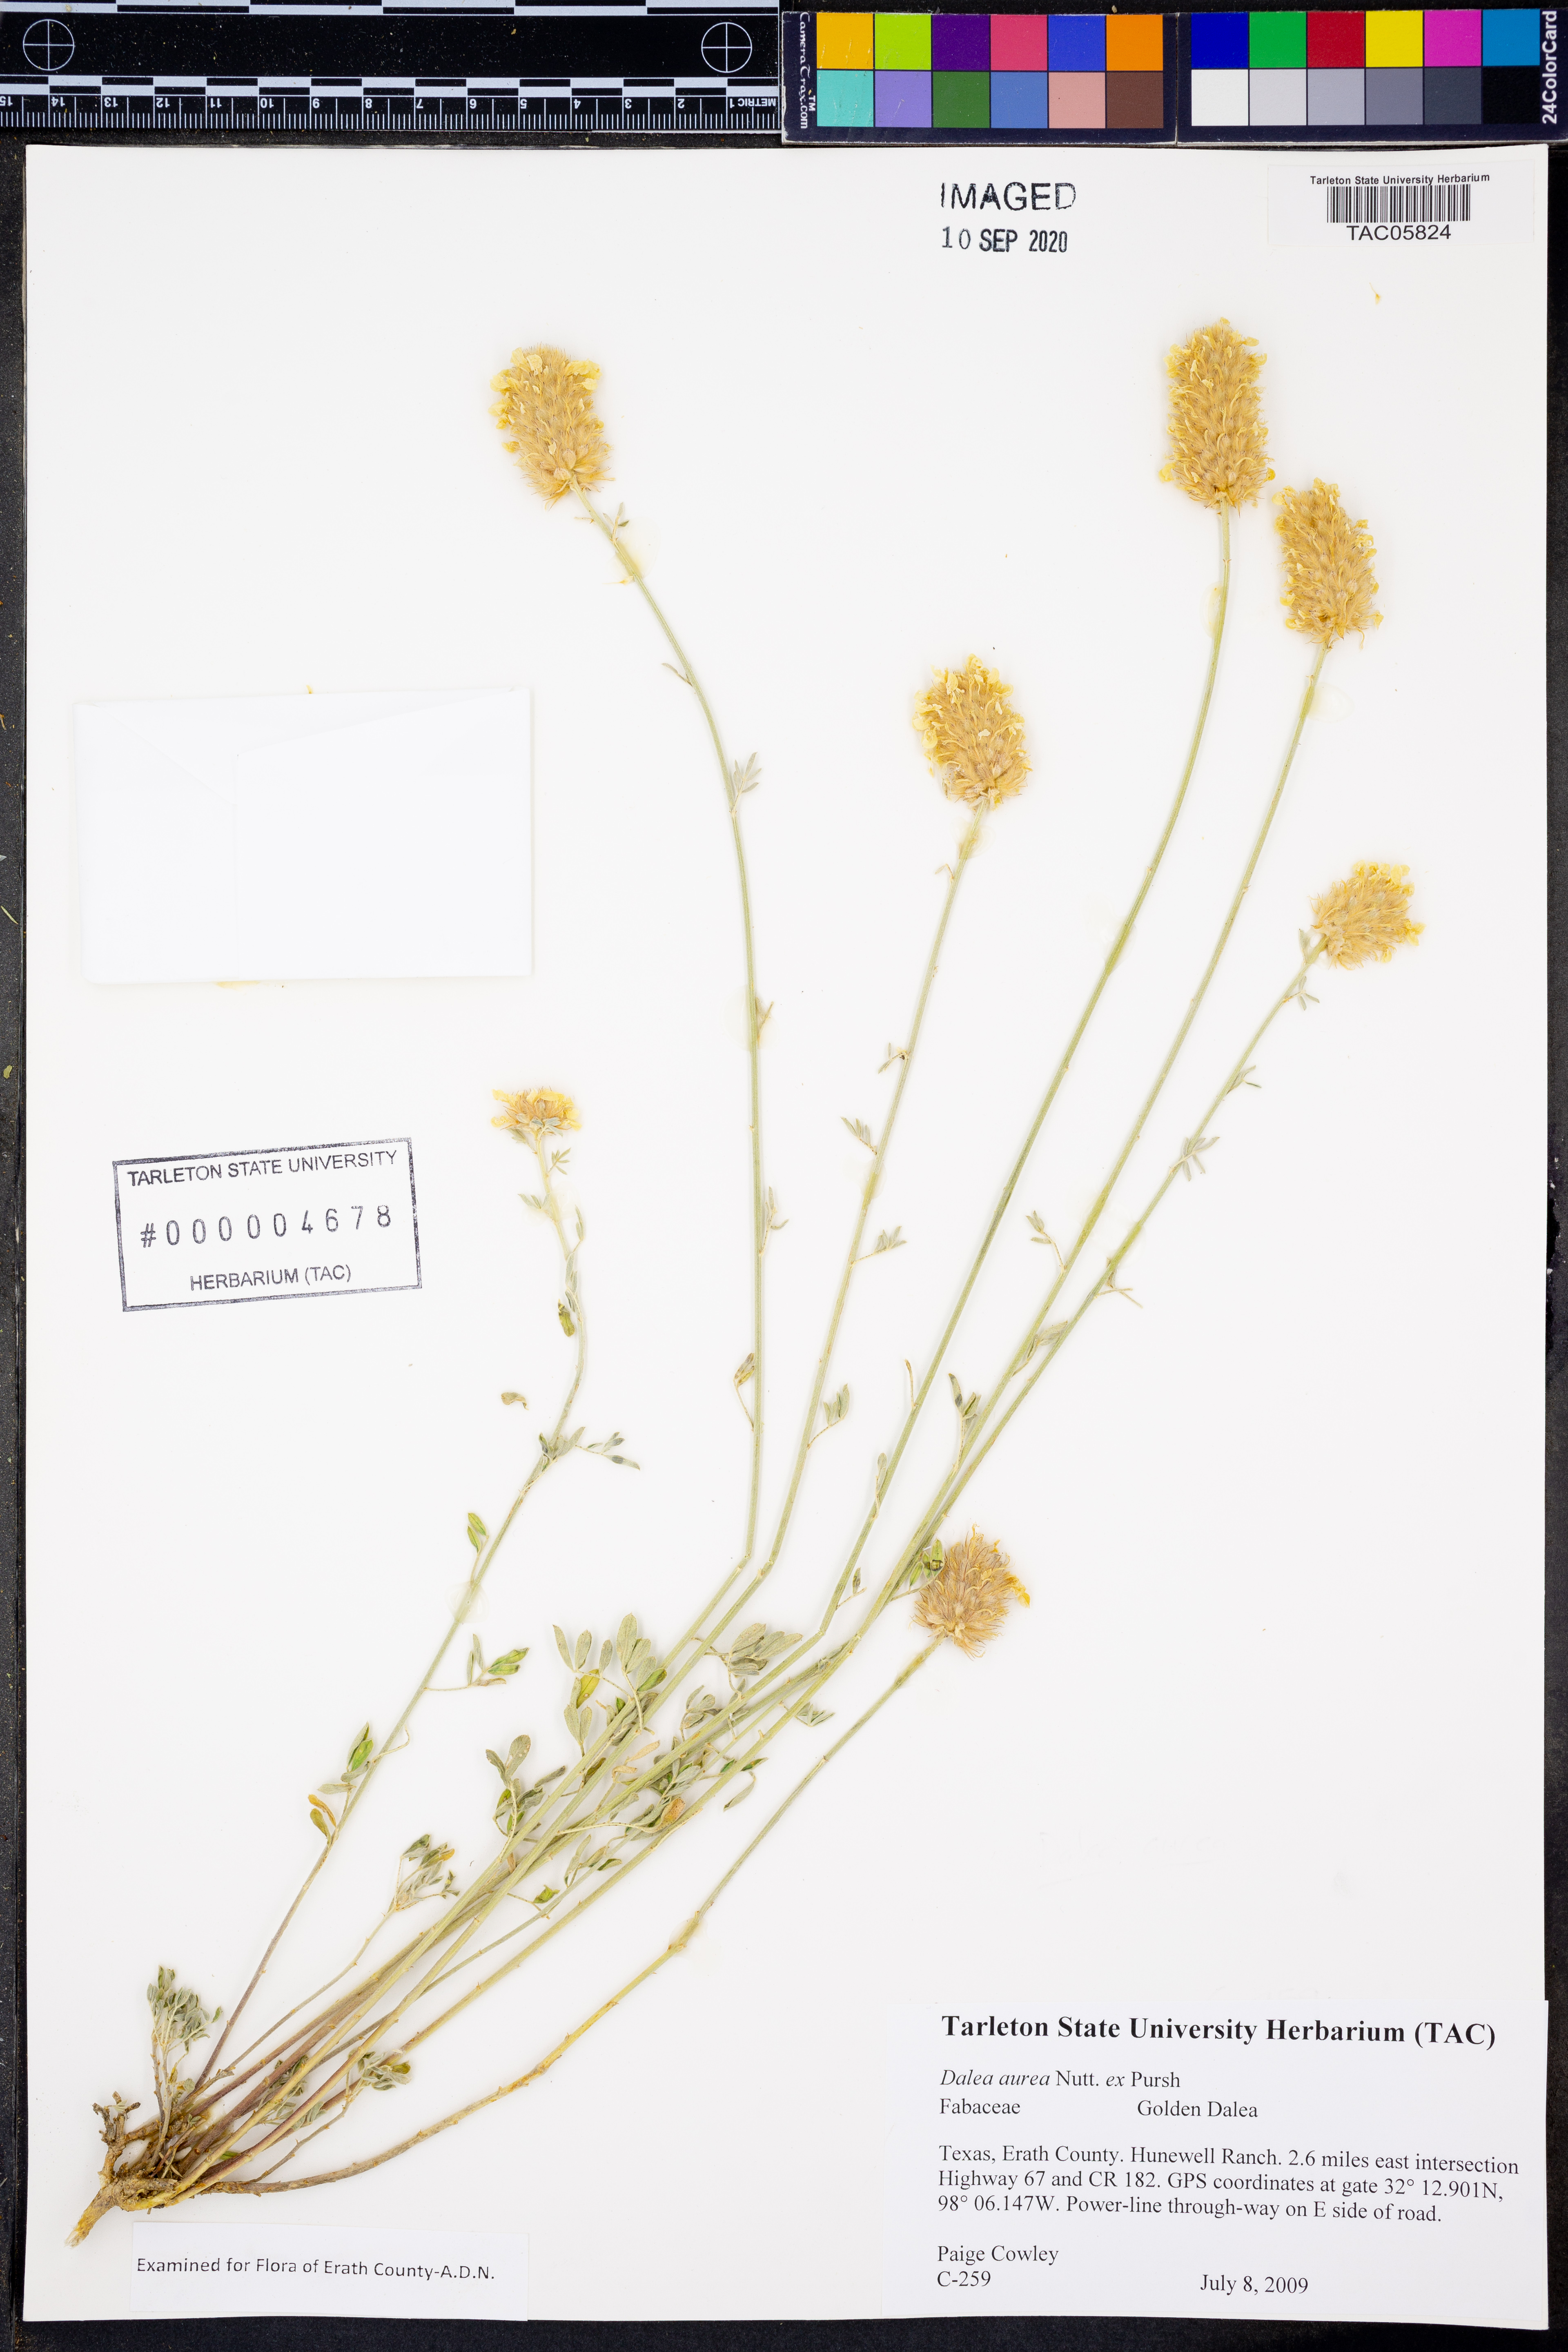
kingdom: Plantae
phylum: Tracheophyta
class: Magnoliopsida
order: Fabales
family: Fabaceae
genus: Dalea
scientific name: Dalea aurea
